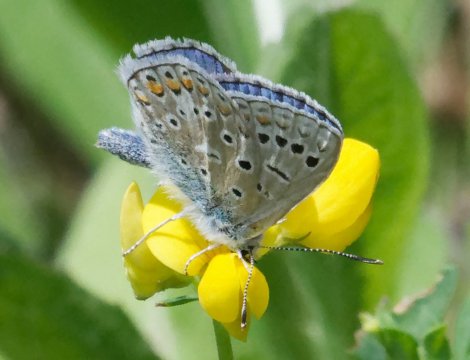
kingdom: Animalia
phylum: Arthropoda
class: Insecta
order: Lepidoptera
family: Lycaenidae
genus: Polyommatus
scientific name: Polyommatus icarus
